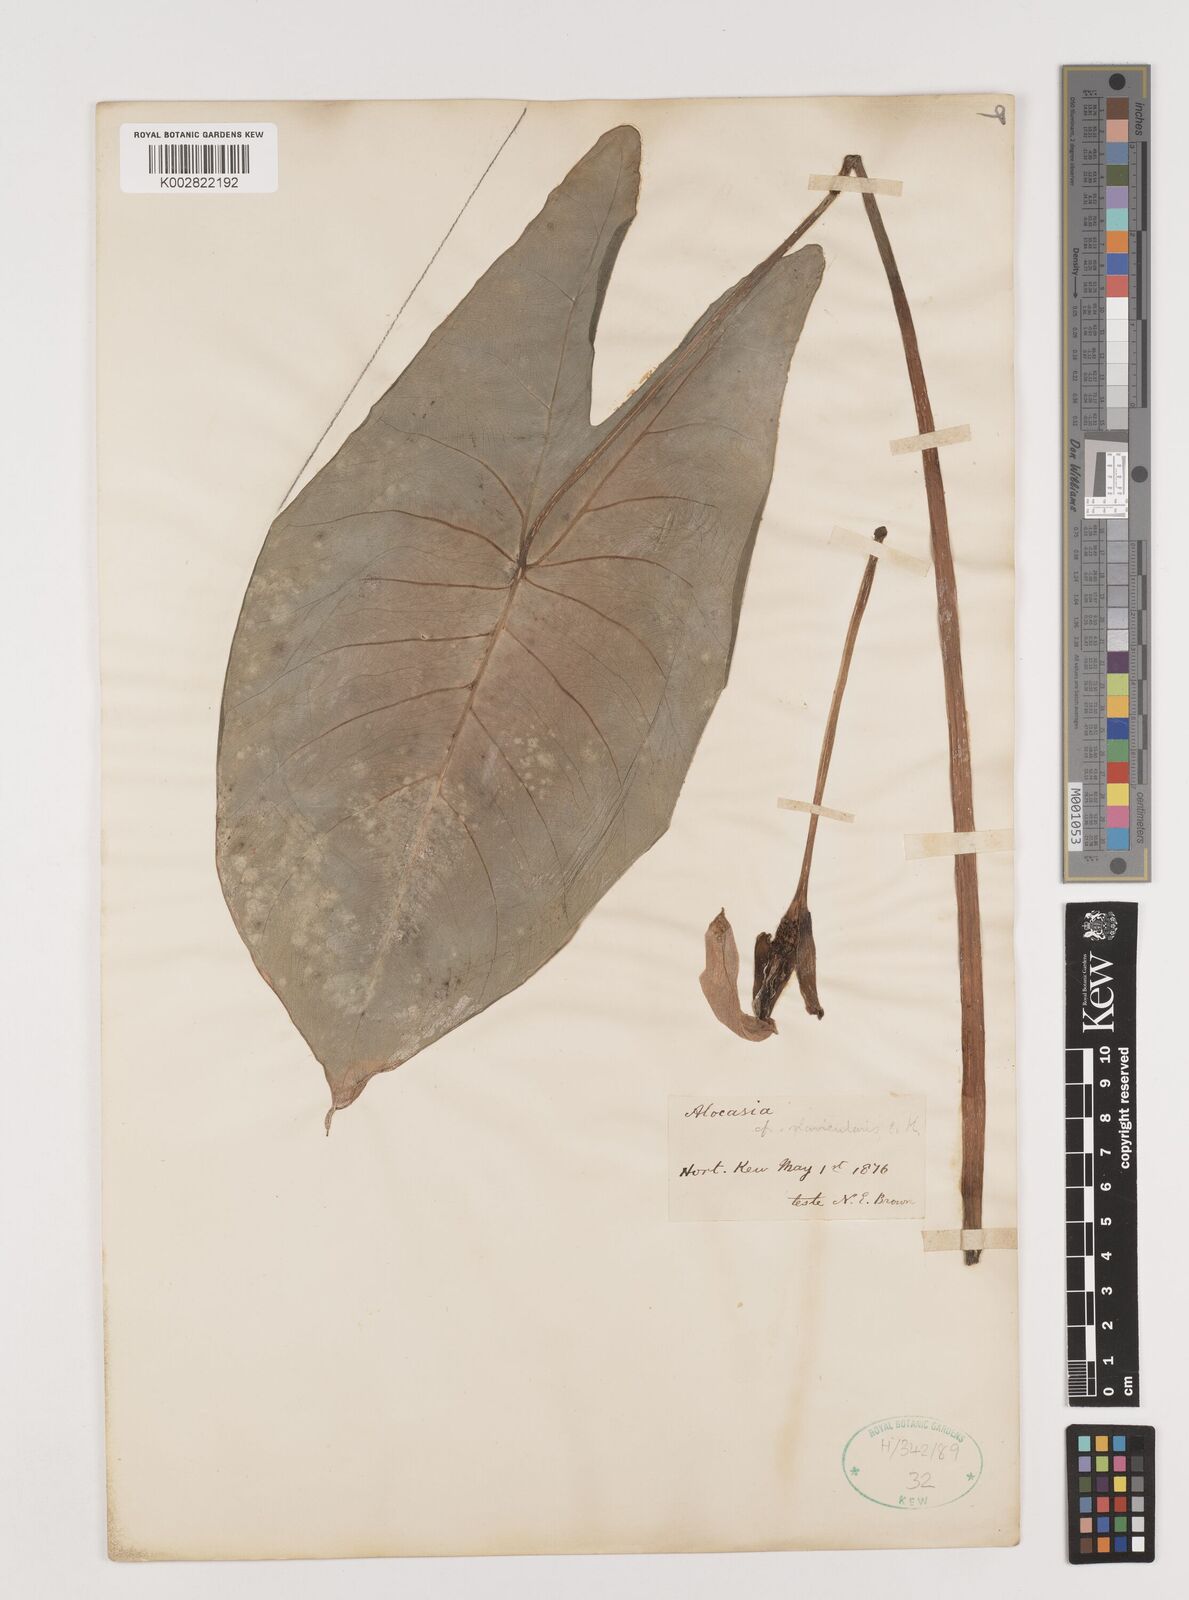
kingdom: Plantae
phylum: Tracheophyta
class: Liliopsida
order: Alismatales
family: Araceae
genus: Alocasia
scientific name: Alocasia macrorrhizos
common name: Giant taro
